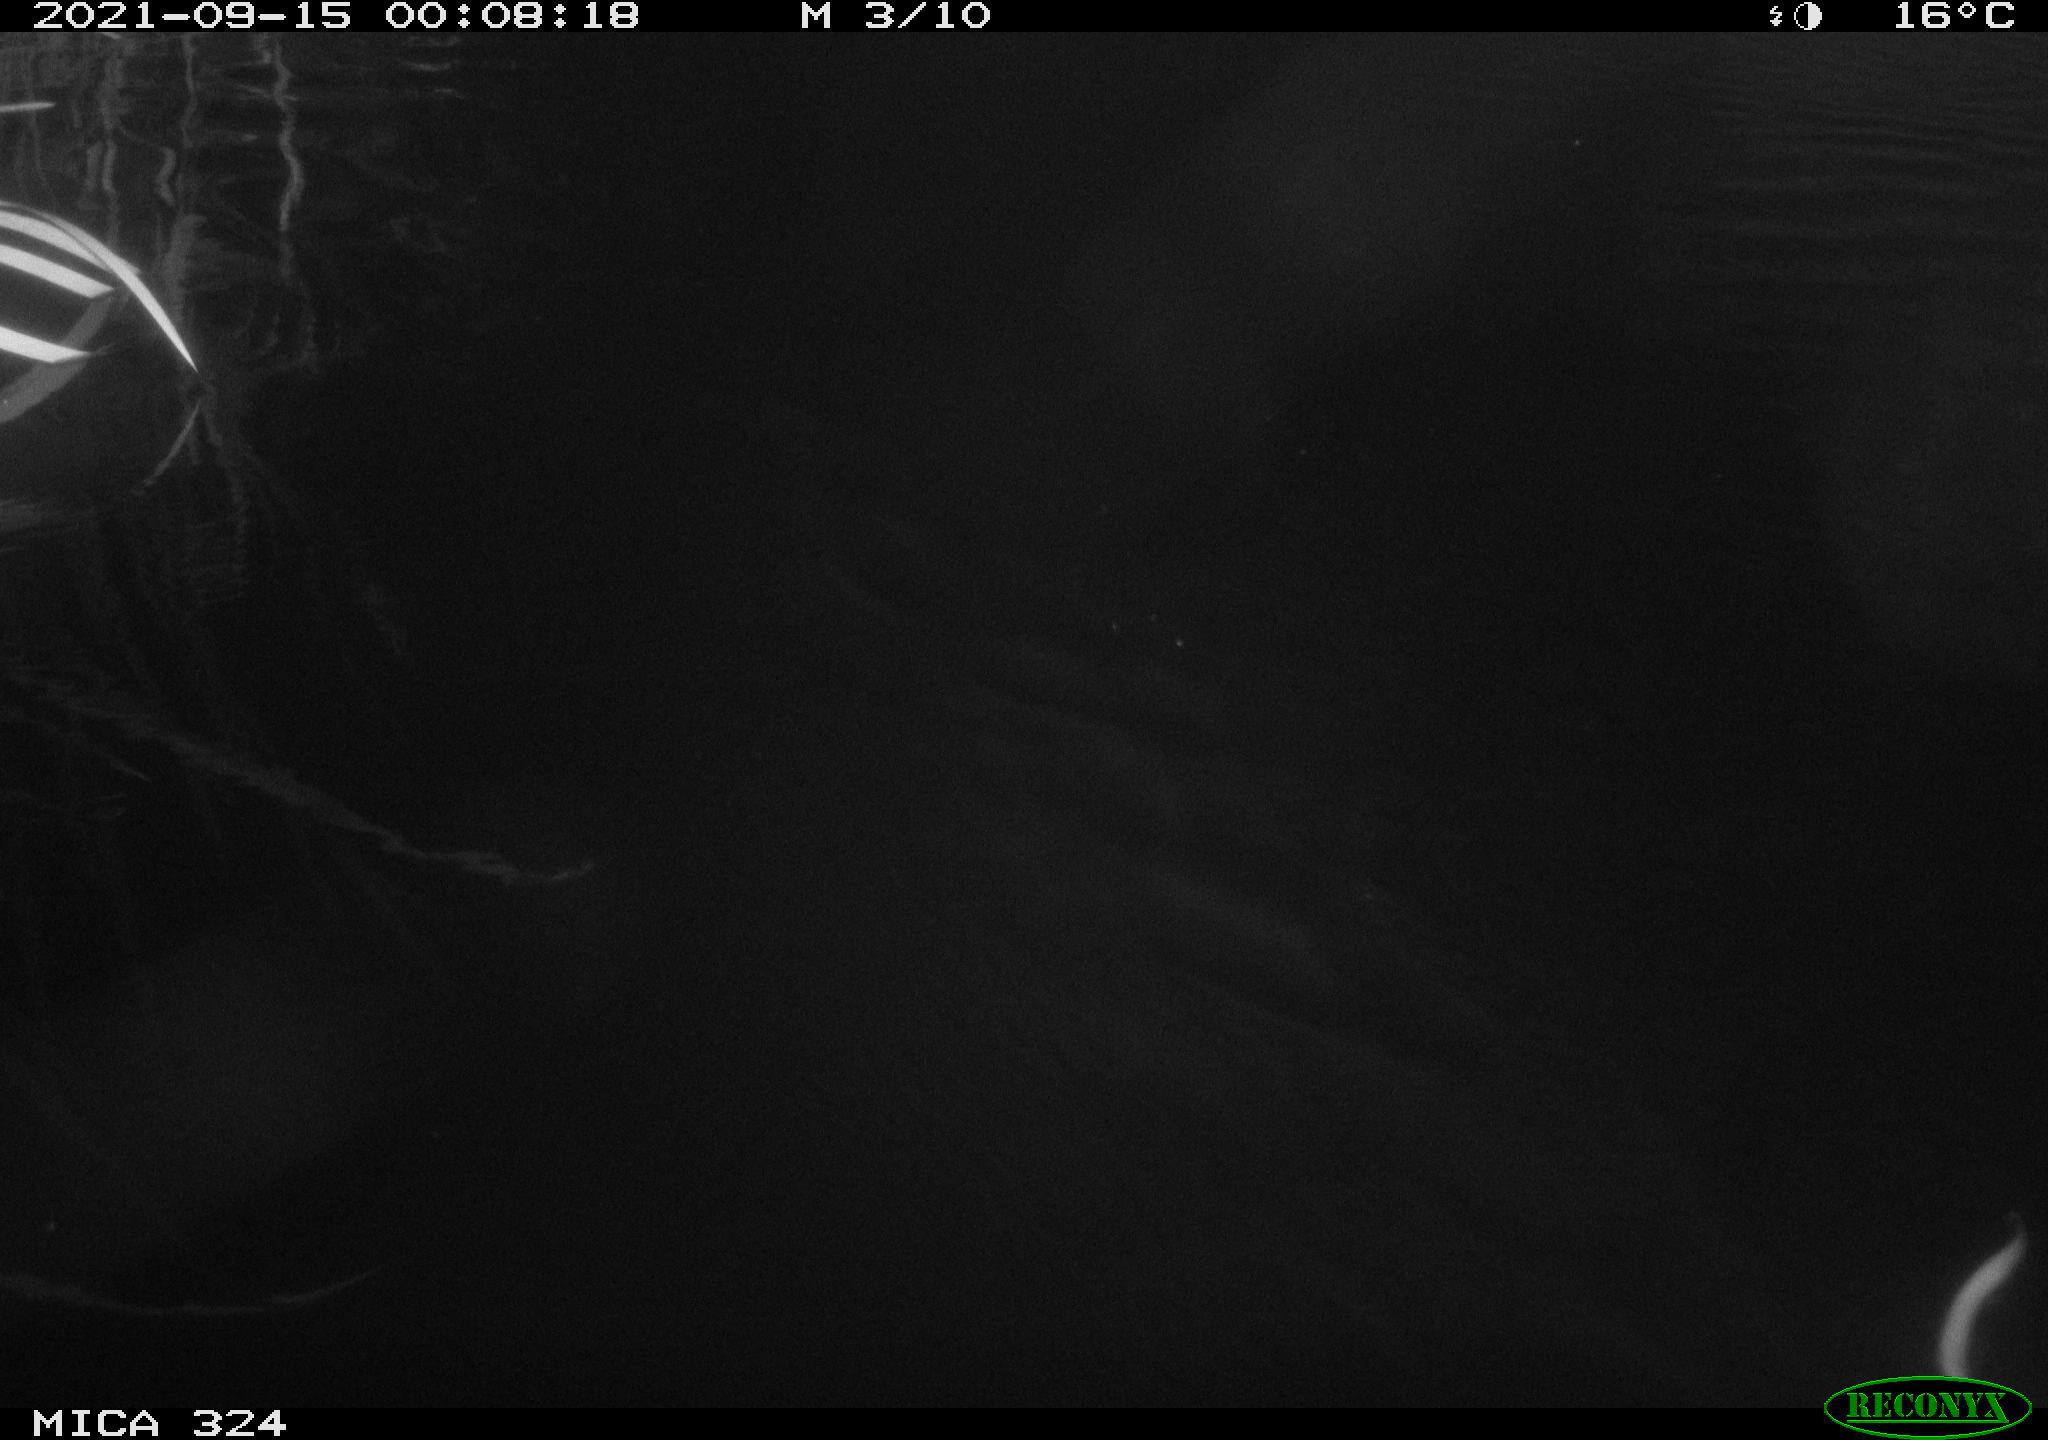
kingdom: Animalia
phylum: Chordata
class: Mammalia
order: Rodentia
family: Cricetidae
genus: Ondatra
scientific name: Ondatra zibethicus
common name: Muskrat
